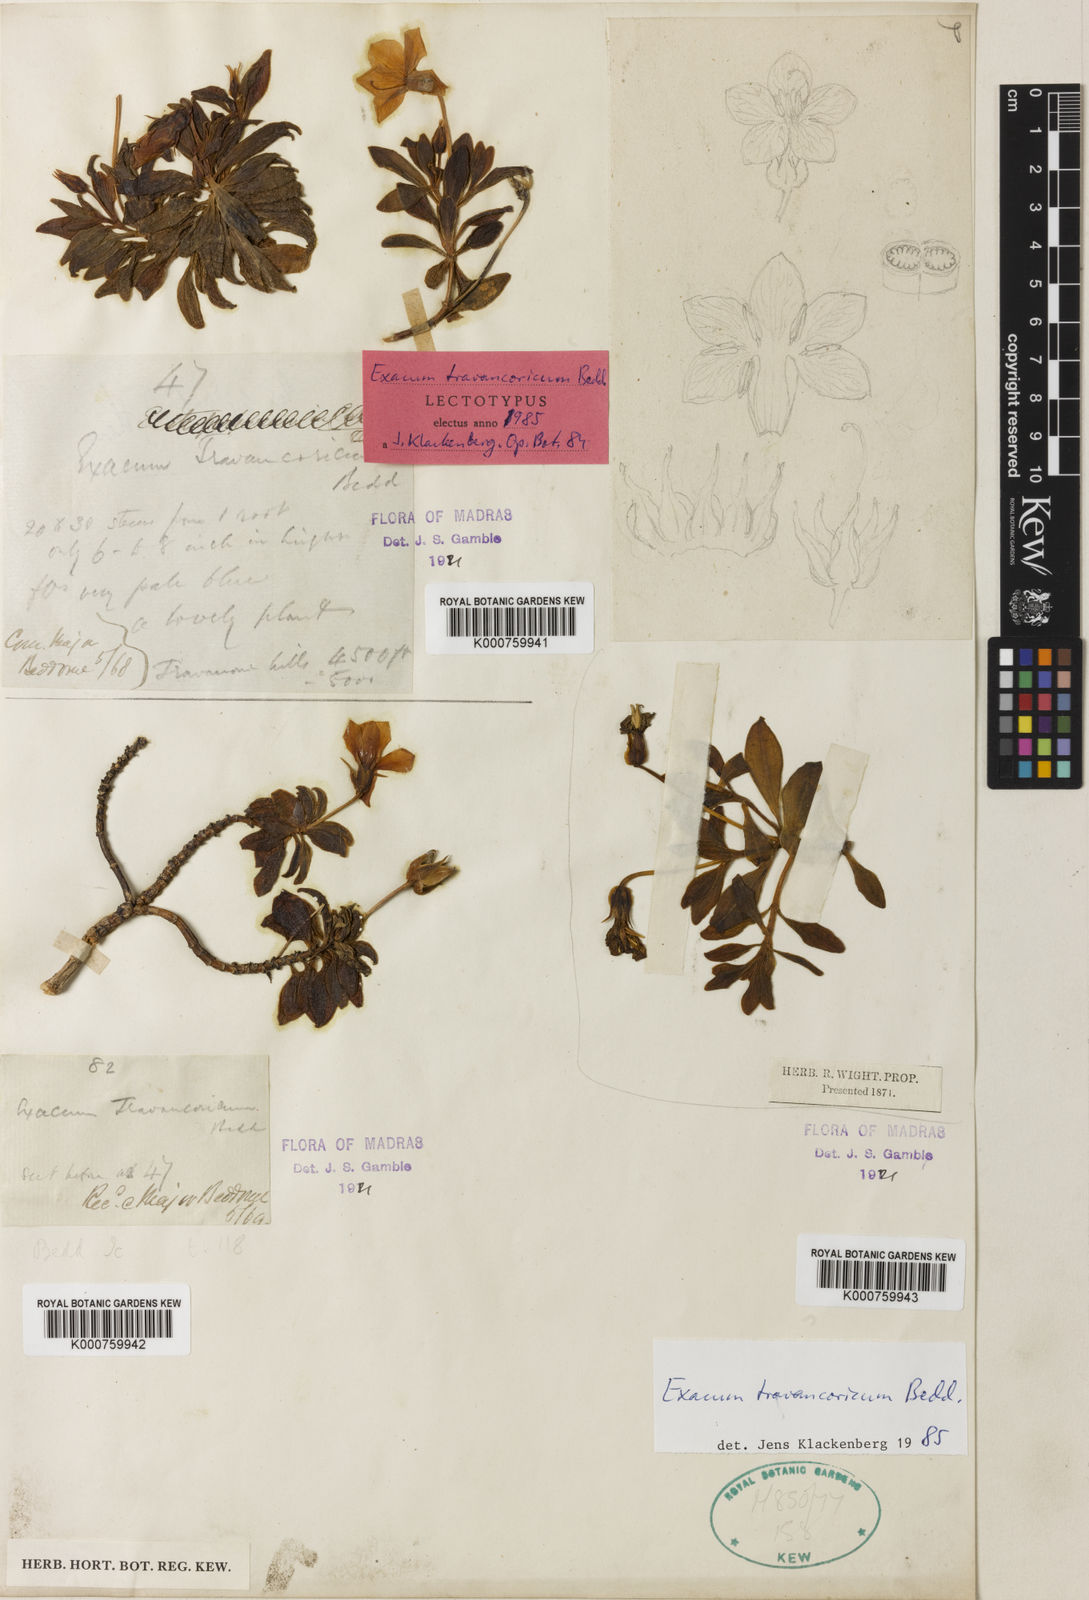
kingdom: Plantae
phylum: Tracheophyta
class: Magnoliopsida
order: Gentianales
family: Gentianaceae
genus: Exacum
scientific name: Exacum travancoricum
